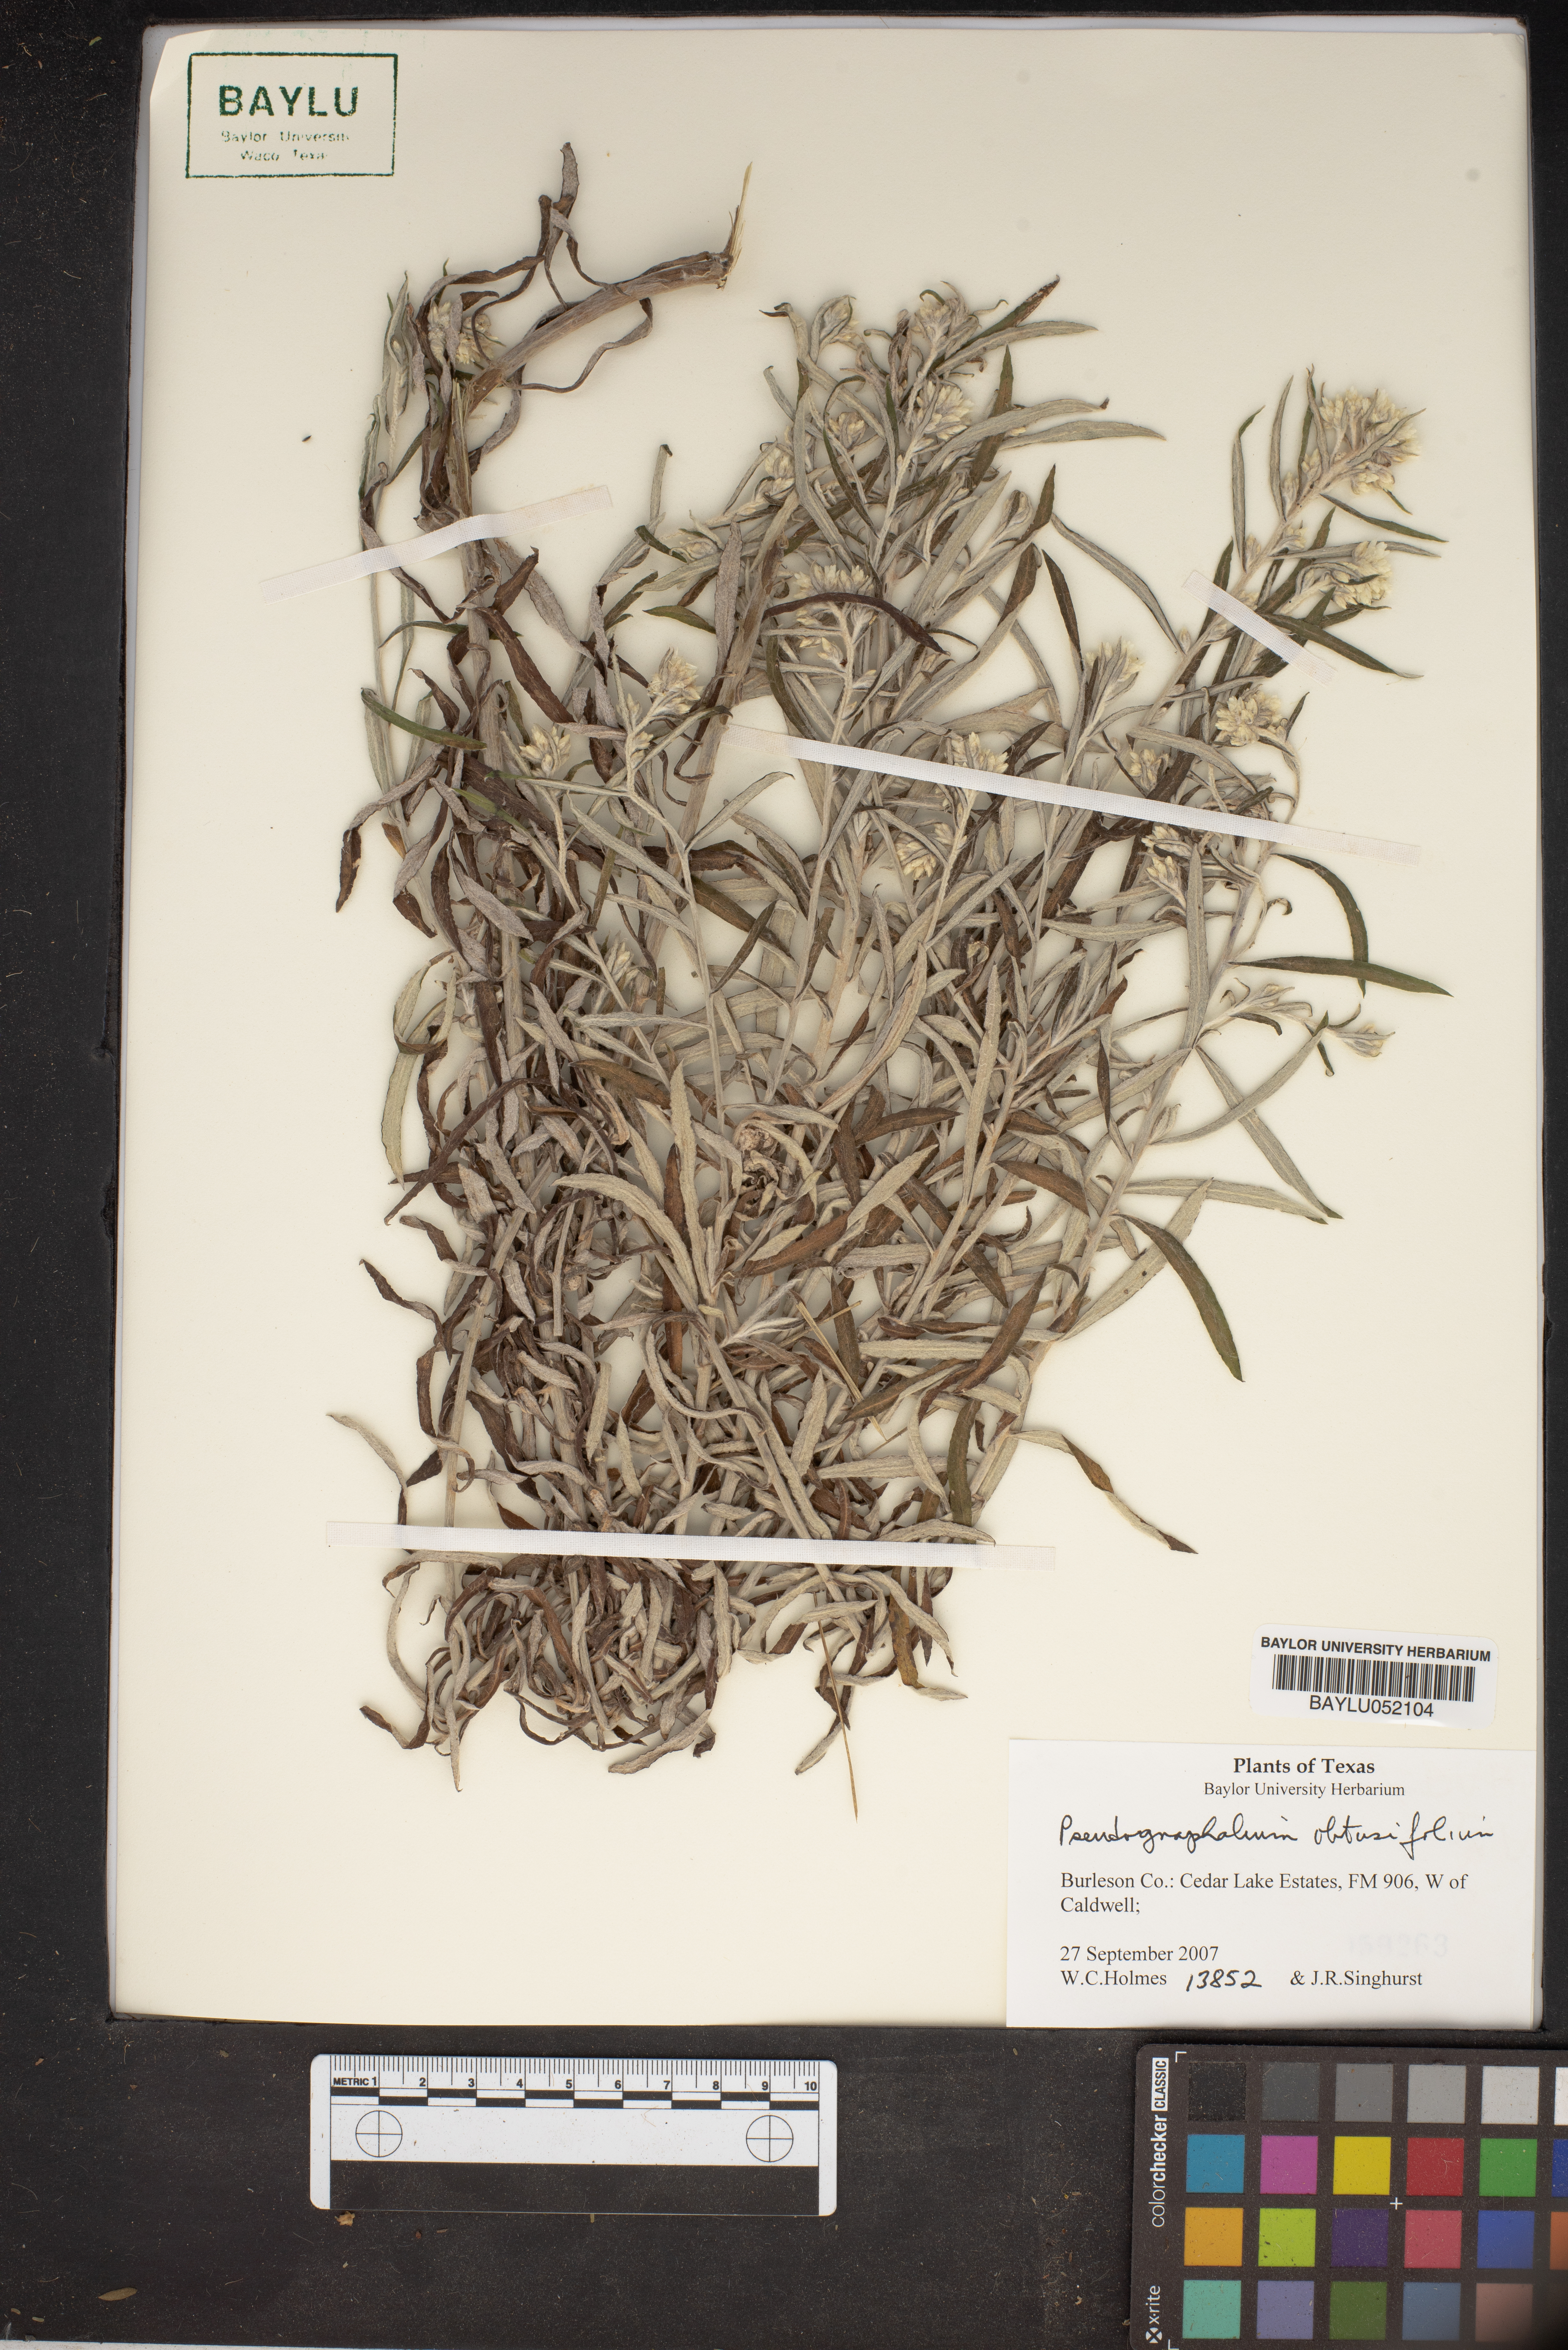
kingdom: Plantae
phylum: Tracheophyta
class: Magnoliopsida
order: Asterales
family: Asteraceae
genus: Pseudognaphalium
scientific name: Pseudognaphalium obtusifolium
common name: Eastern rabbit-tobacco
